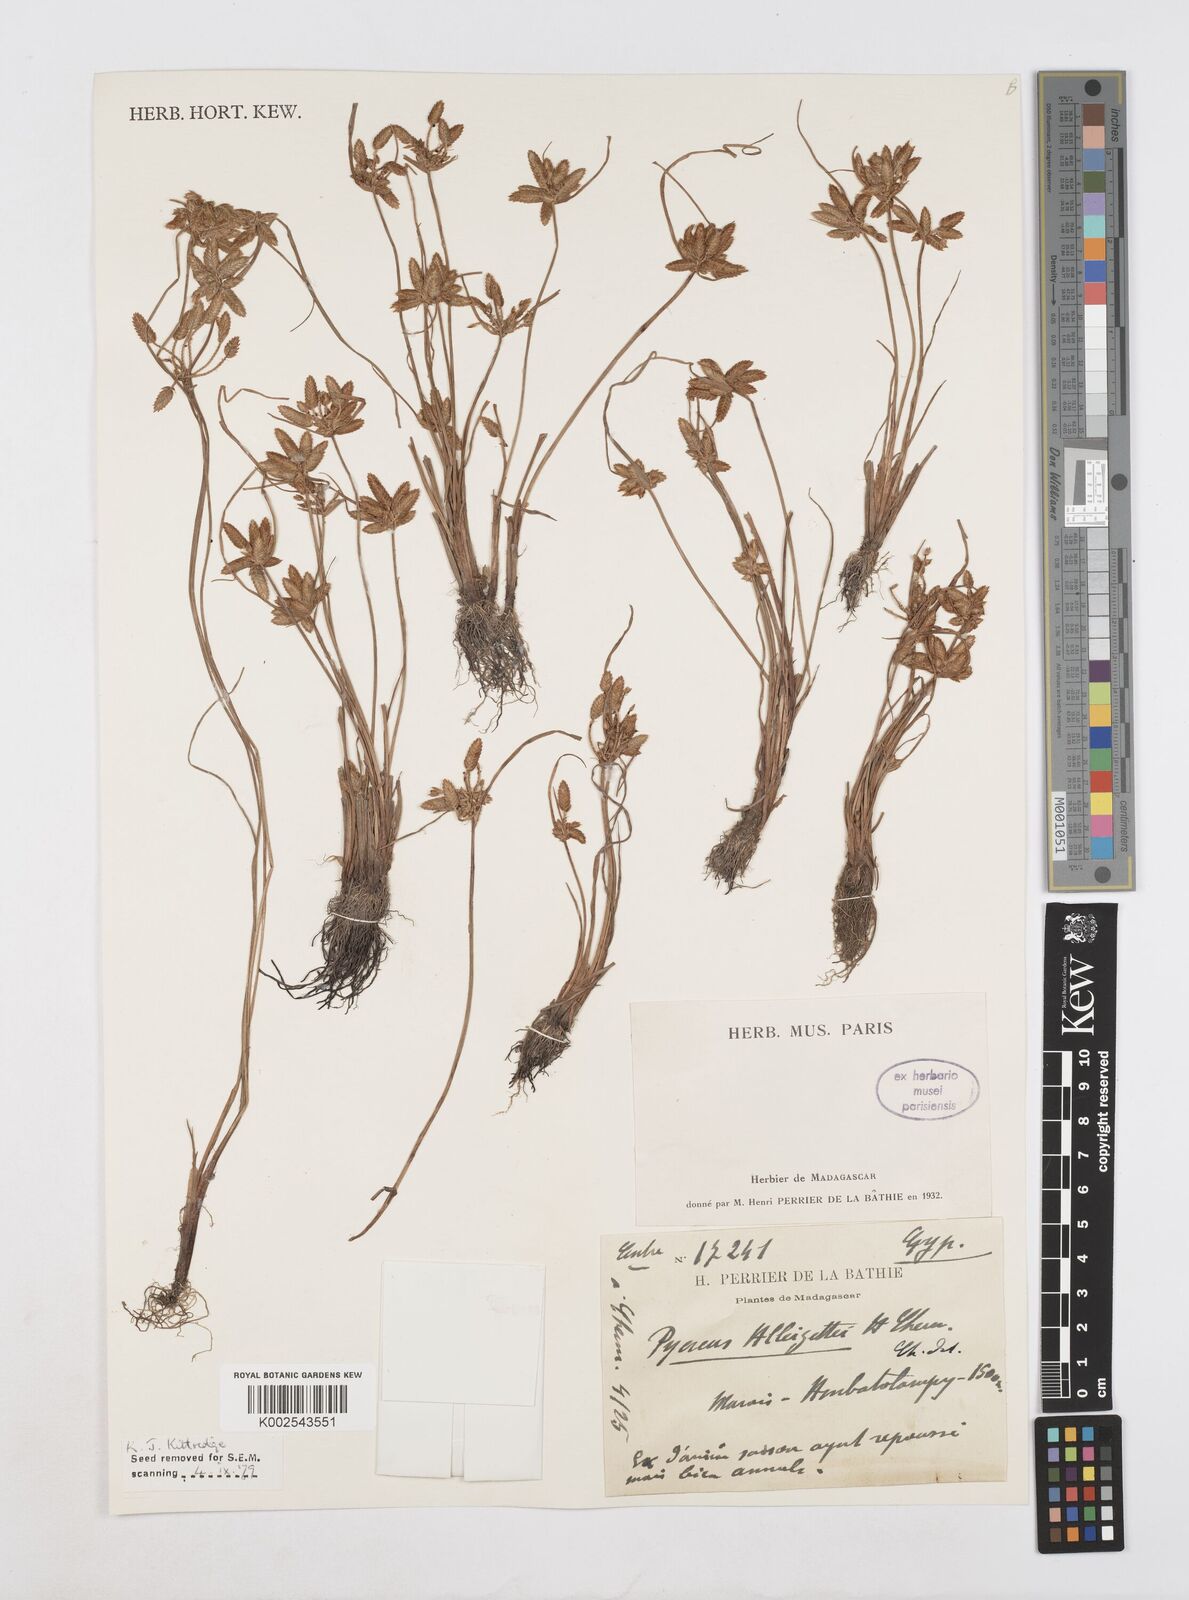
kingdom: Plantae
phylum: Tracheophyta
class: Liliopsida
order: Poales
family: Cyperaceae
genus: Cyperus
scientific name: Cyperus alleizettei
